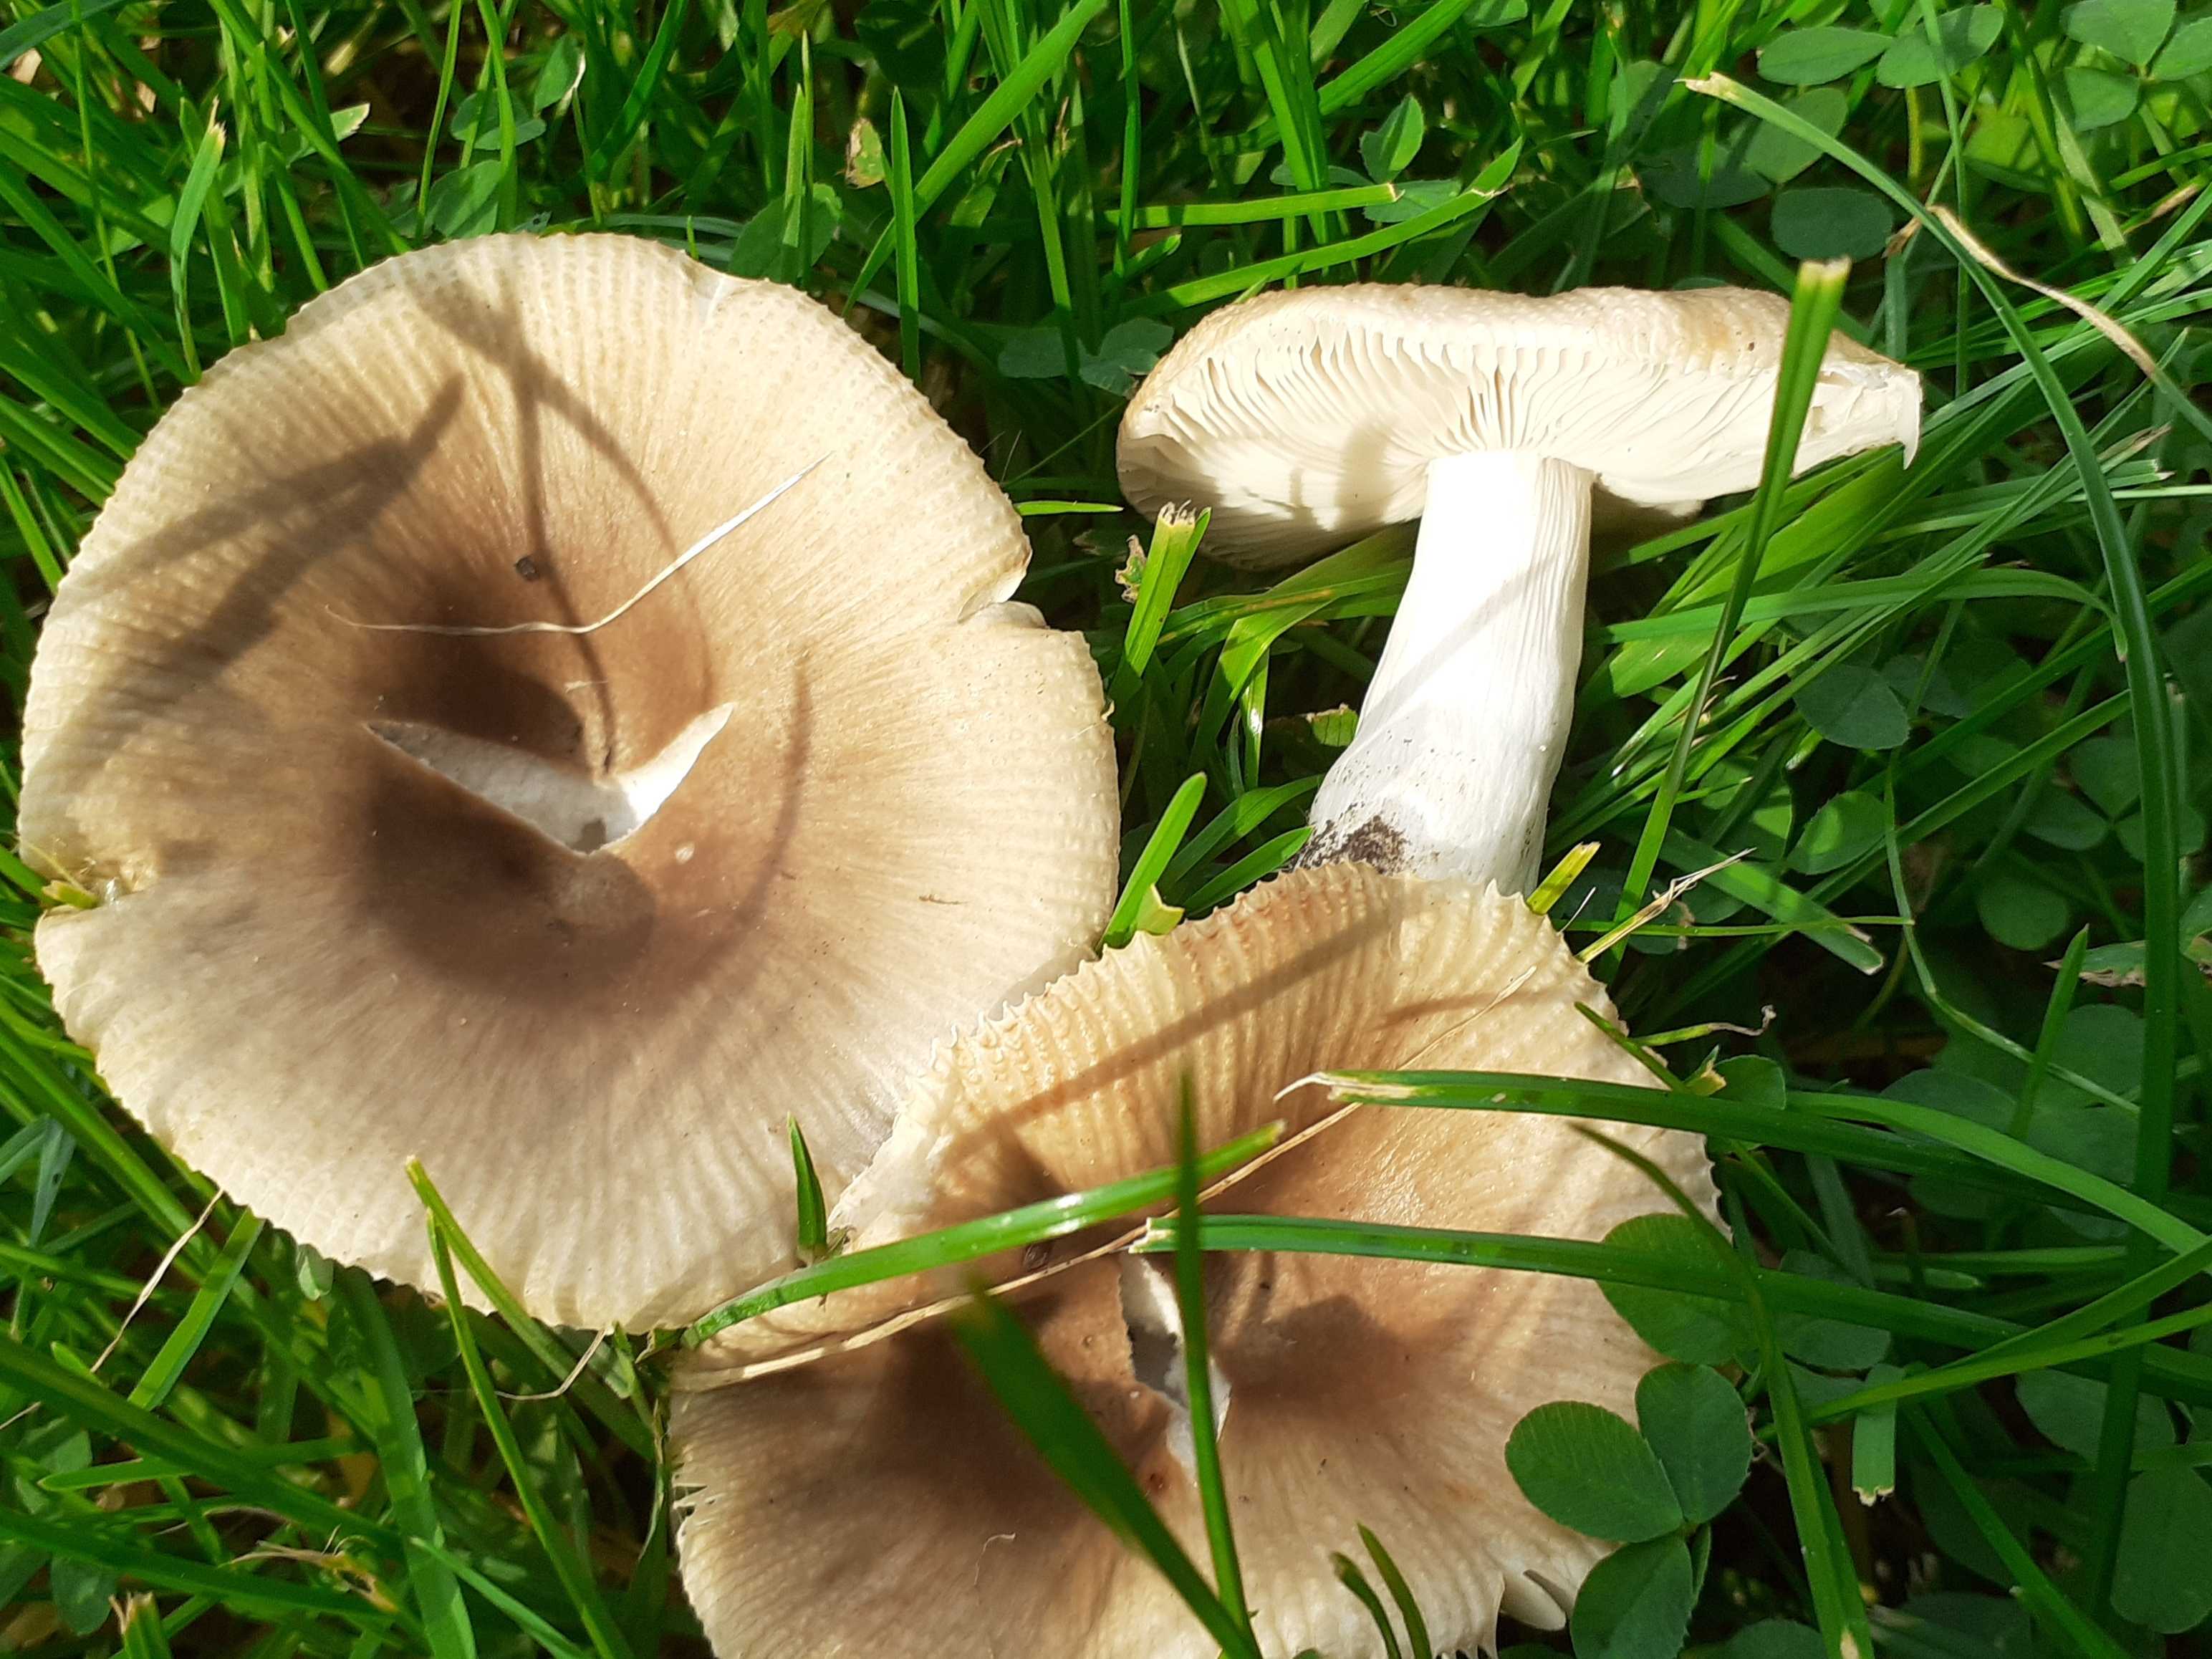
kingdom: Fungi
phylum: Basidiomycota
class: Agaricomycetes
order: Russulales
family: Russulaceae
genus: Russula
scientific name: Russula recondita
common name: mild kam-skørhat
